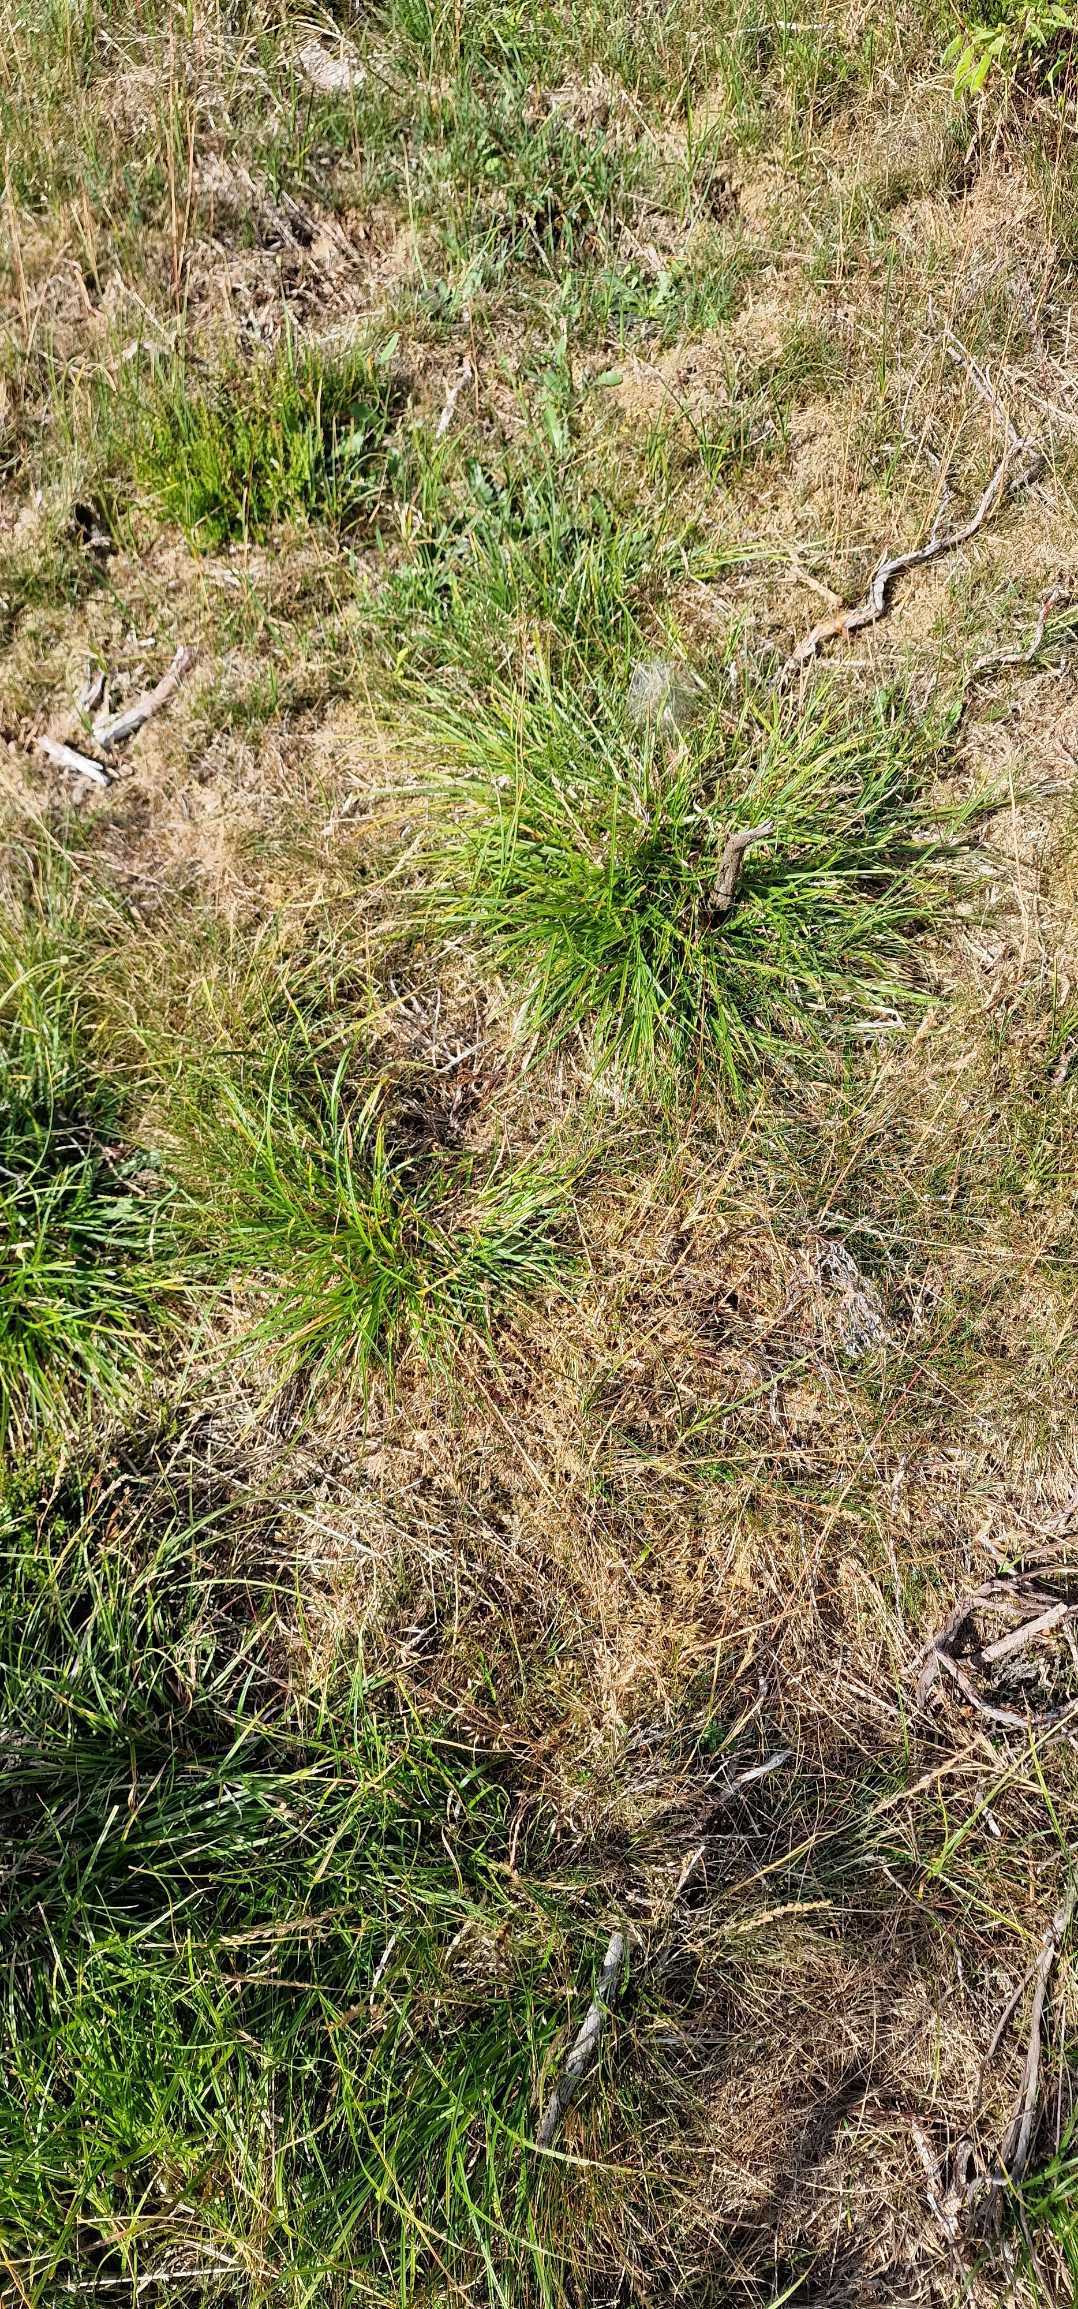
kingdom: Plantae
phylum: Tracheophyta
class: Liliopsida
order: Poales
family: Cyperaceae
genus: Carex
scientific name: Carex pilulifera
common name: Pille-star
